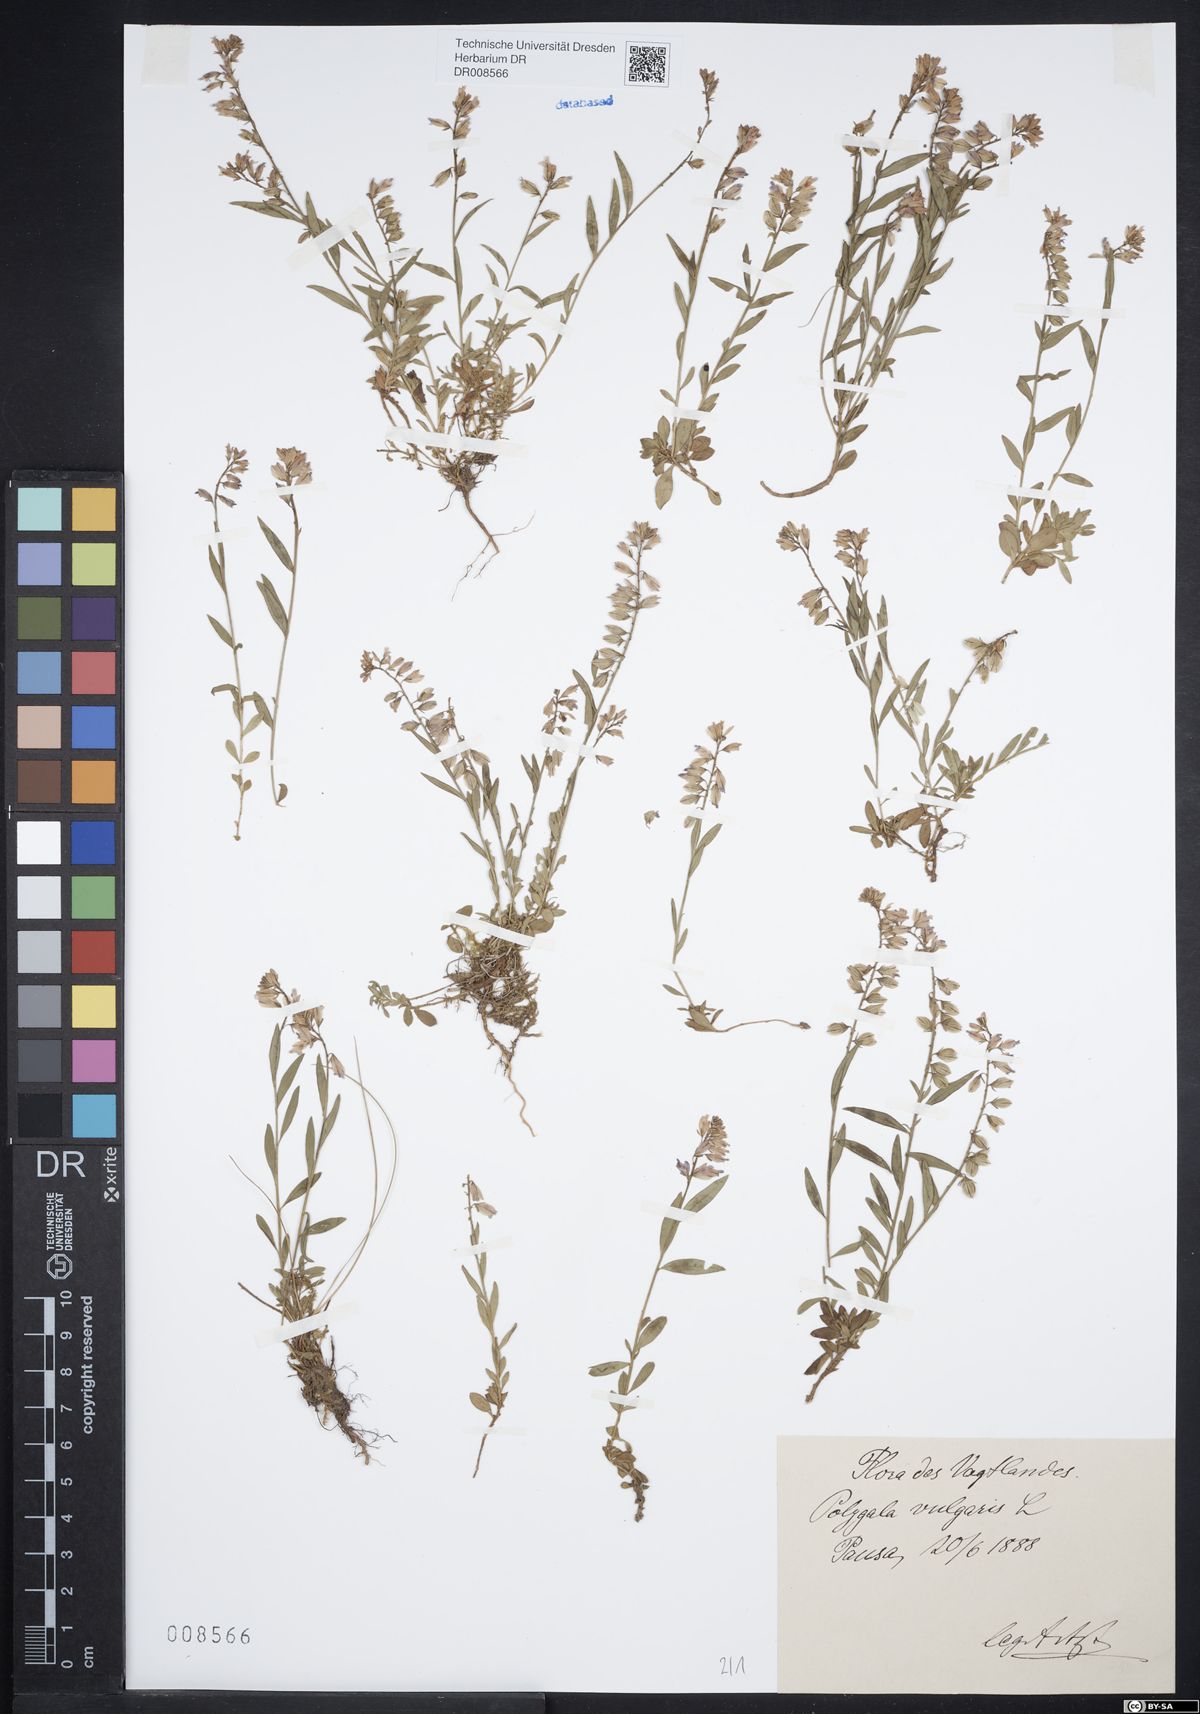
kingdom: Plantae
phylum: Tracheophyta
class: Magnoliopsida
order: Fabales
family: Polygalaceae
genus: Polygala
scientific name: Polygala vulgaris
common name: Common milkwort
